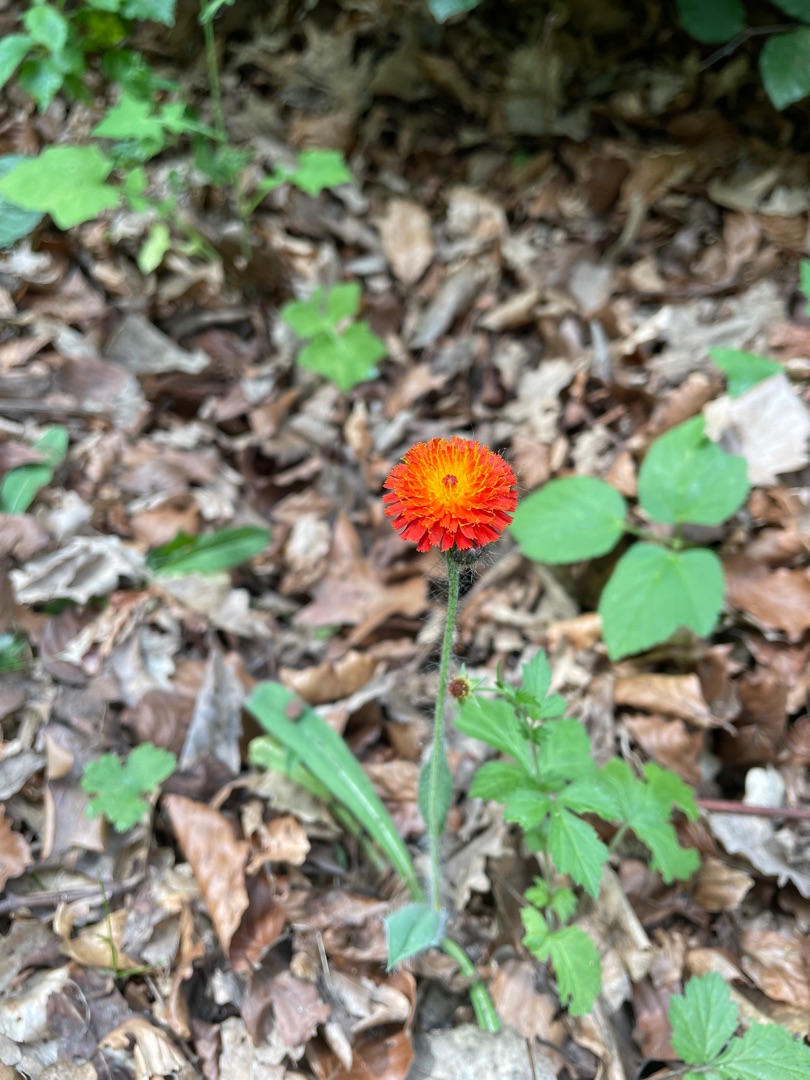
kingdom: Plantae
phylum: Tracheophyta
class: Magnoliopsida
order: Asterales
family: Asteraceae
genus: Pilosella
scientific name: Pilosella aurantiaca
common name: Pomerans-høgeurt
